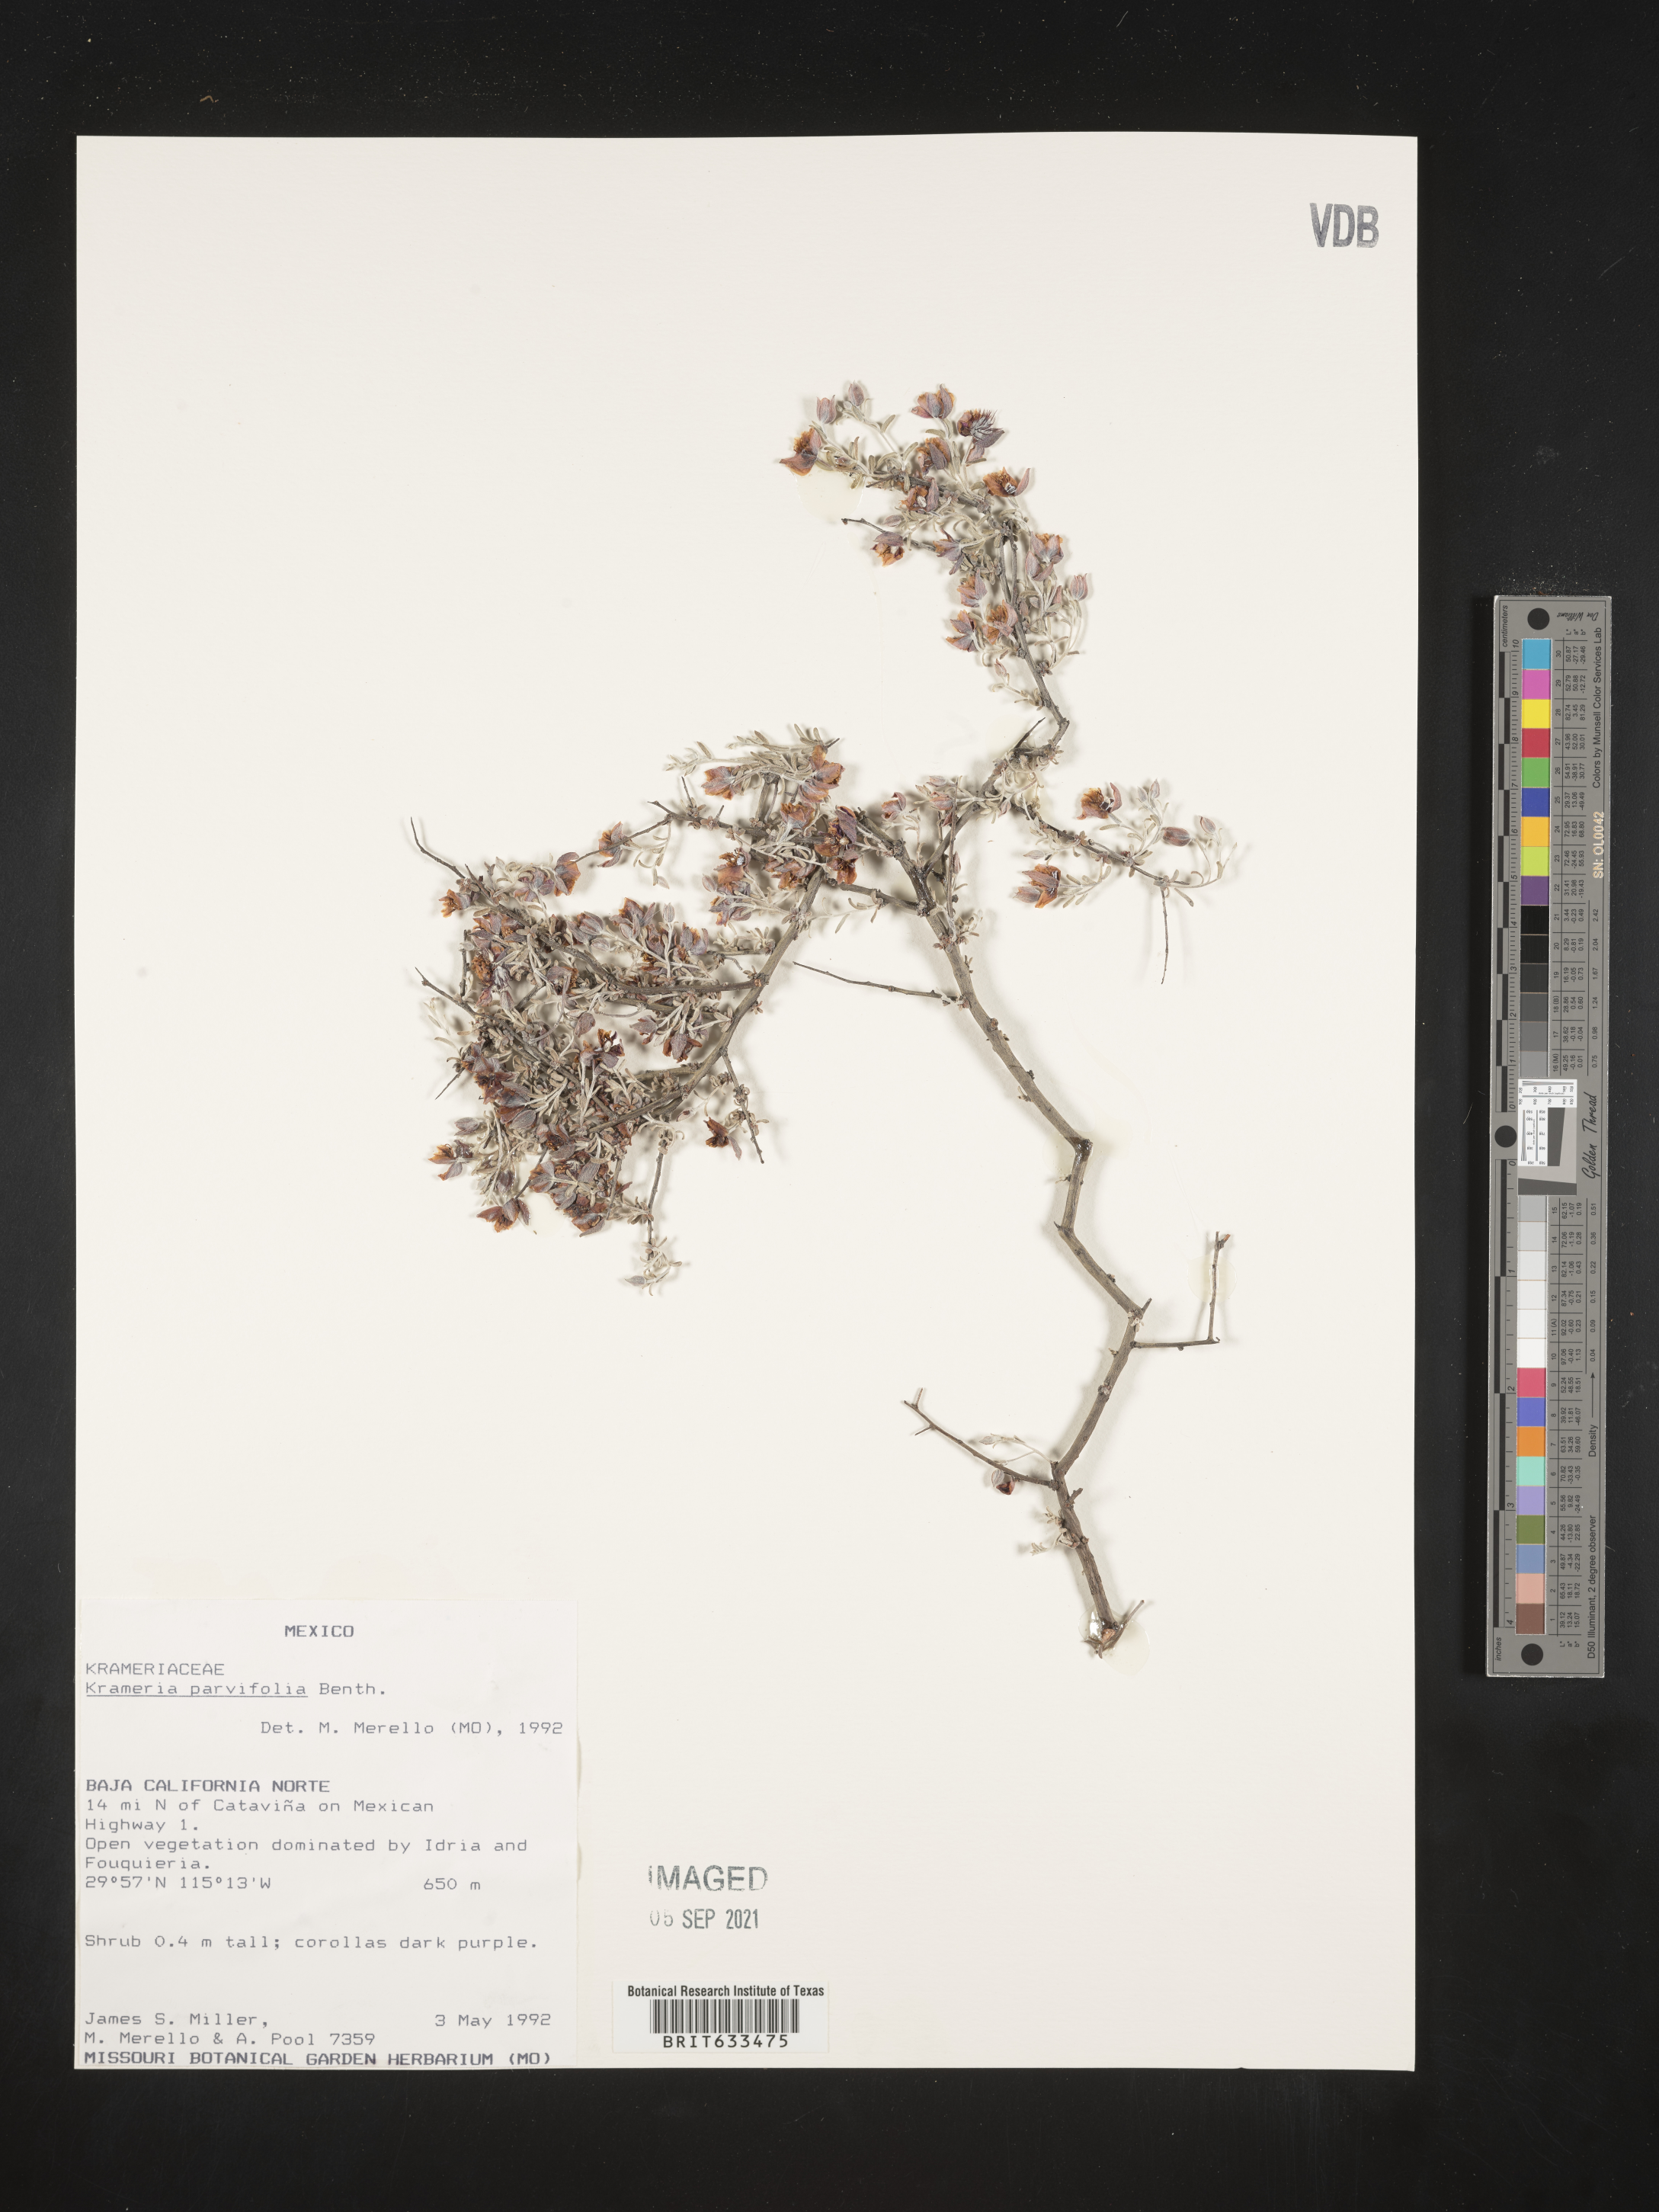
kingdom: Plantae
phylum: Tracheophyta
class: Magnoliopsida
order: Zygophyllales
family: Krameriaceae
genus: Krameria
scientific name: Krameria
